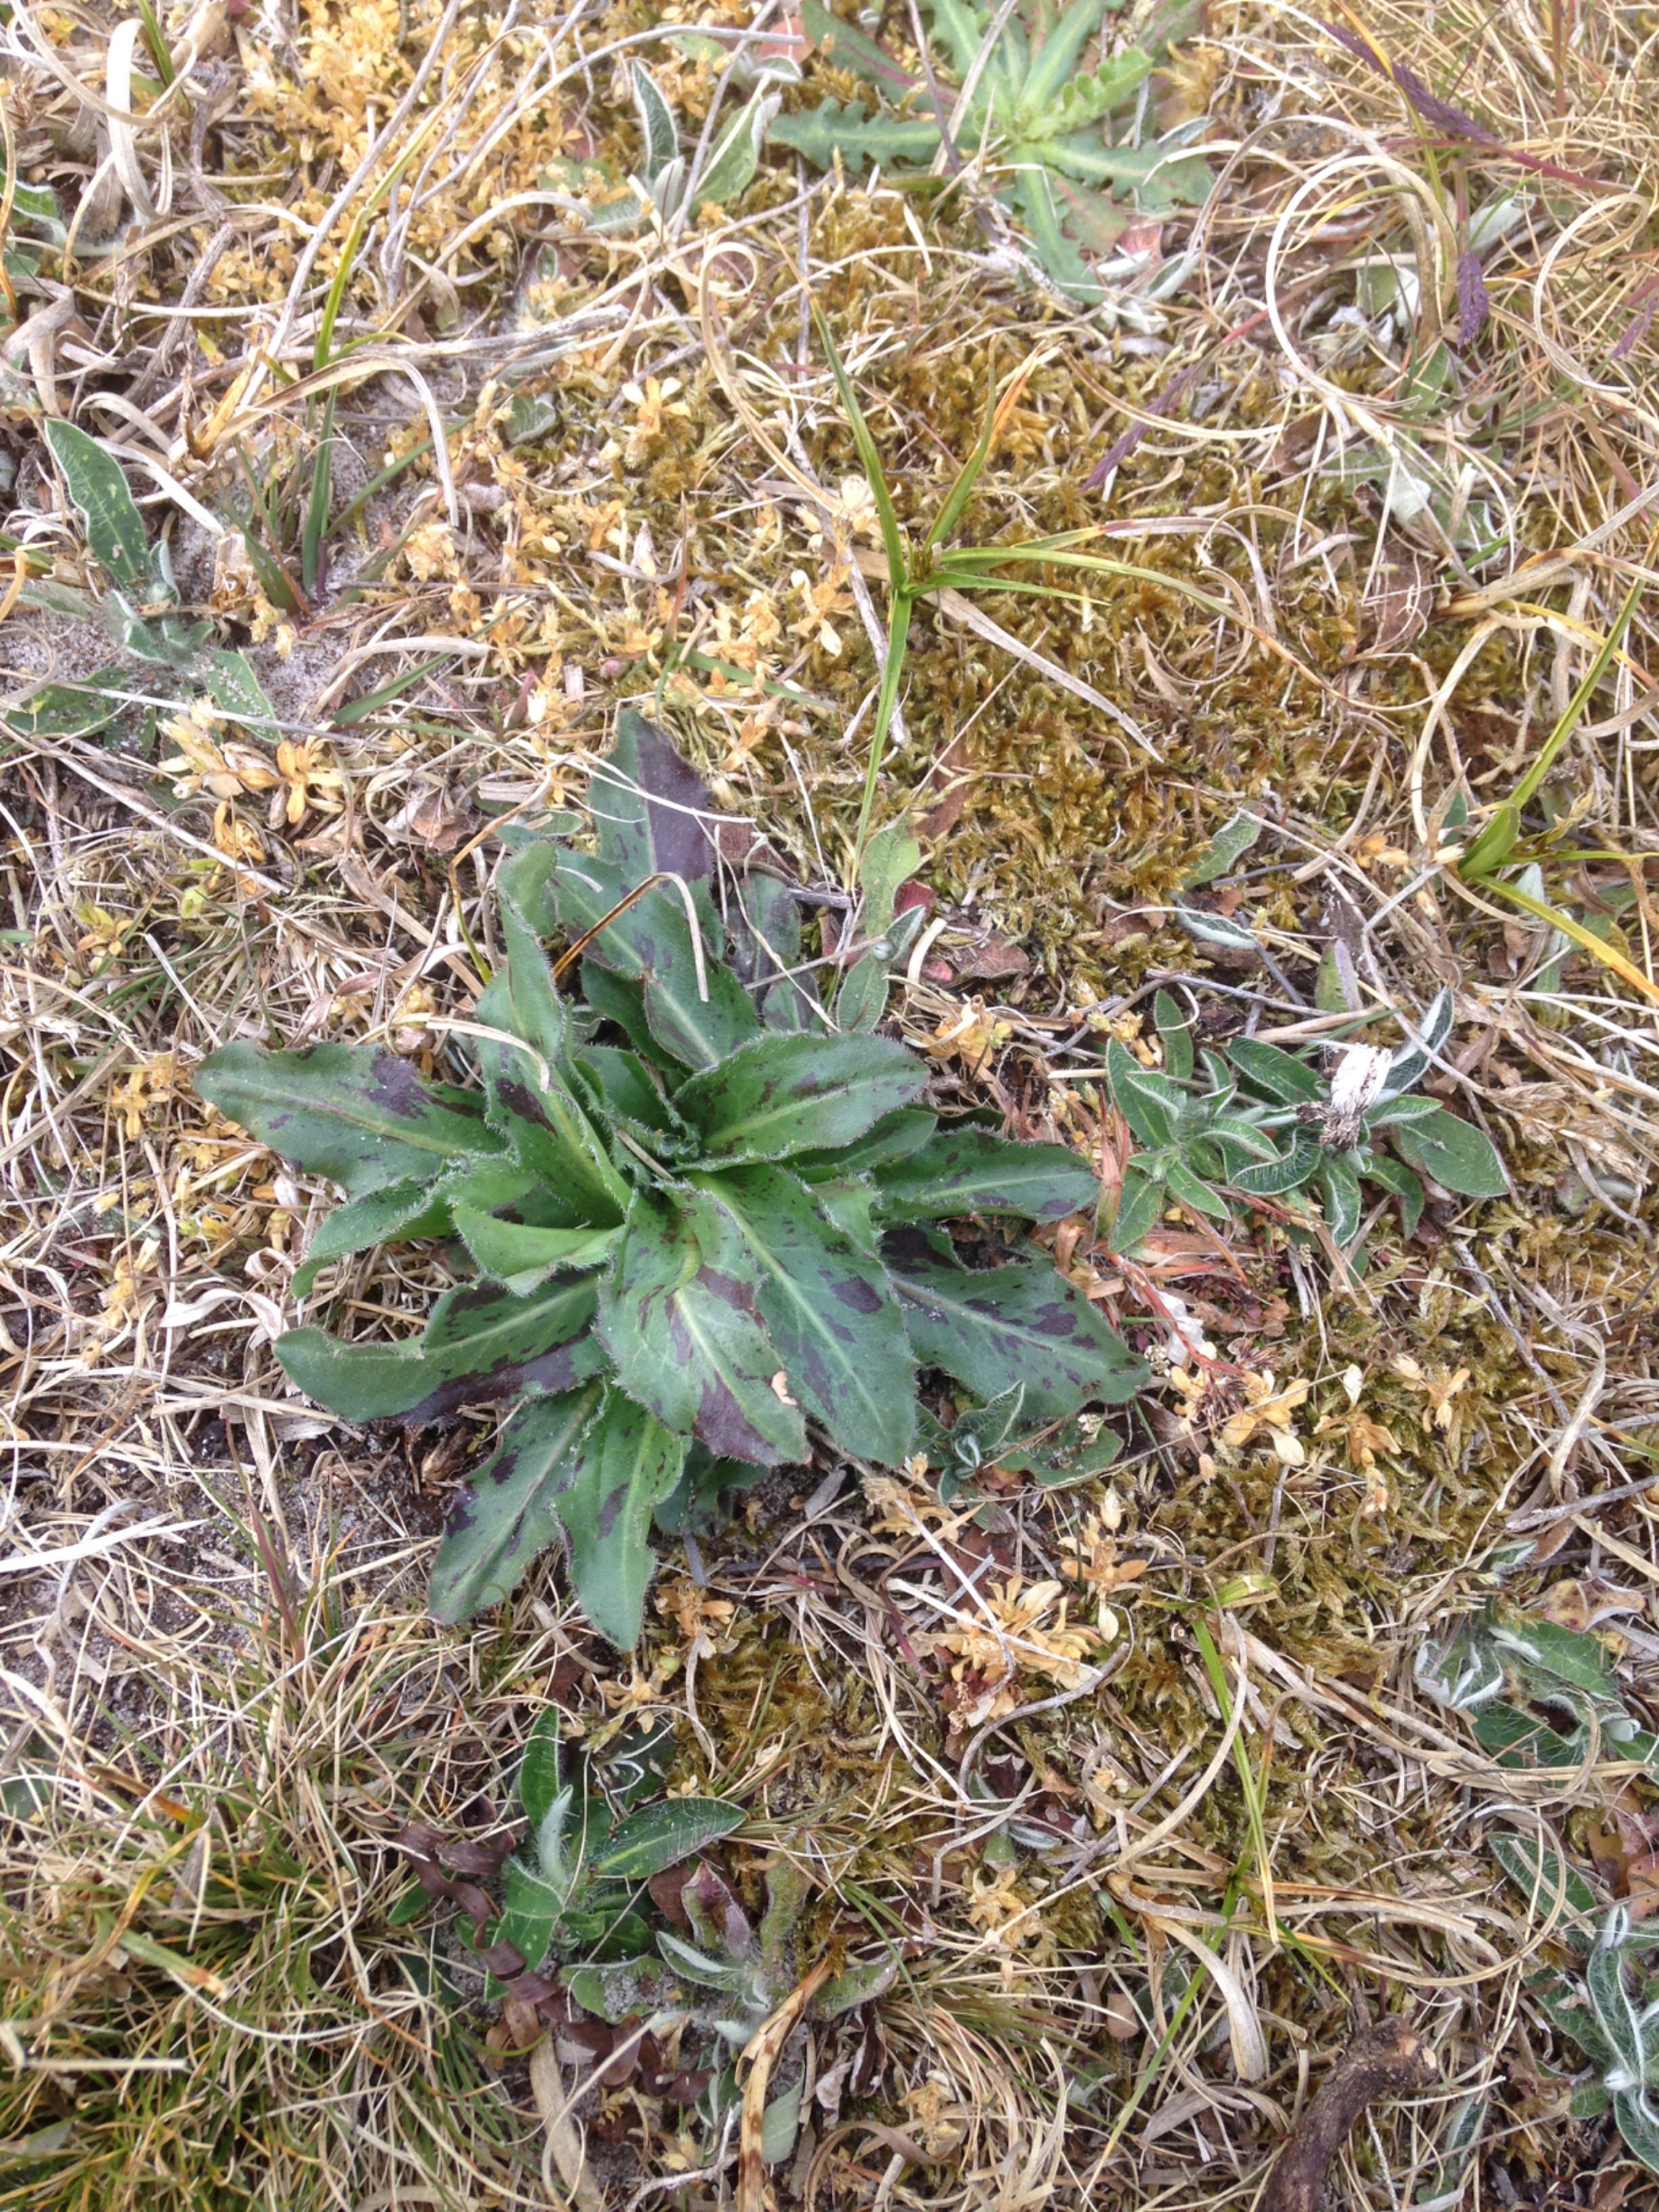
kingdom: Plantae
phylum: Tracheophyta
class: Magnoliopsida
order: Asterales
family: Asteraceae
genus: Trommsdorffia
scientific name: Trommsdorffia maculata
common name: Plettet kongepen
